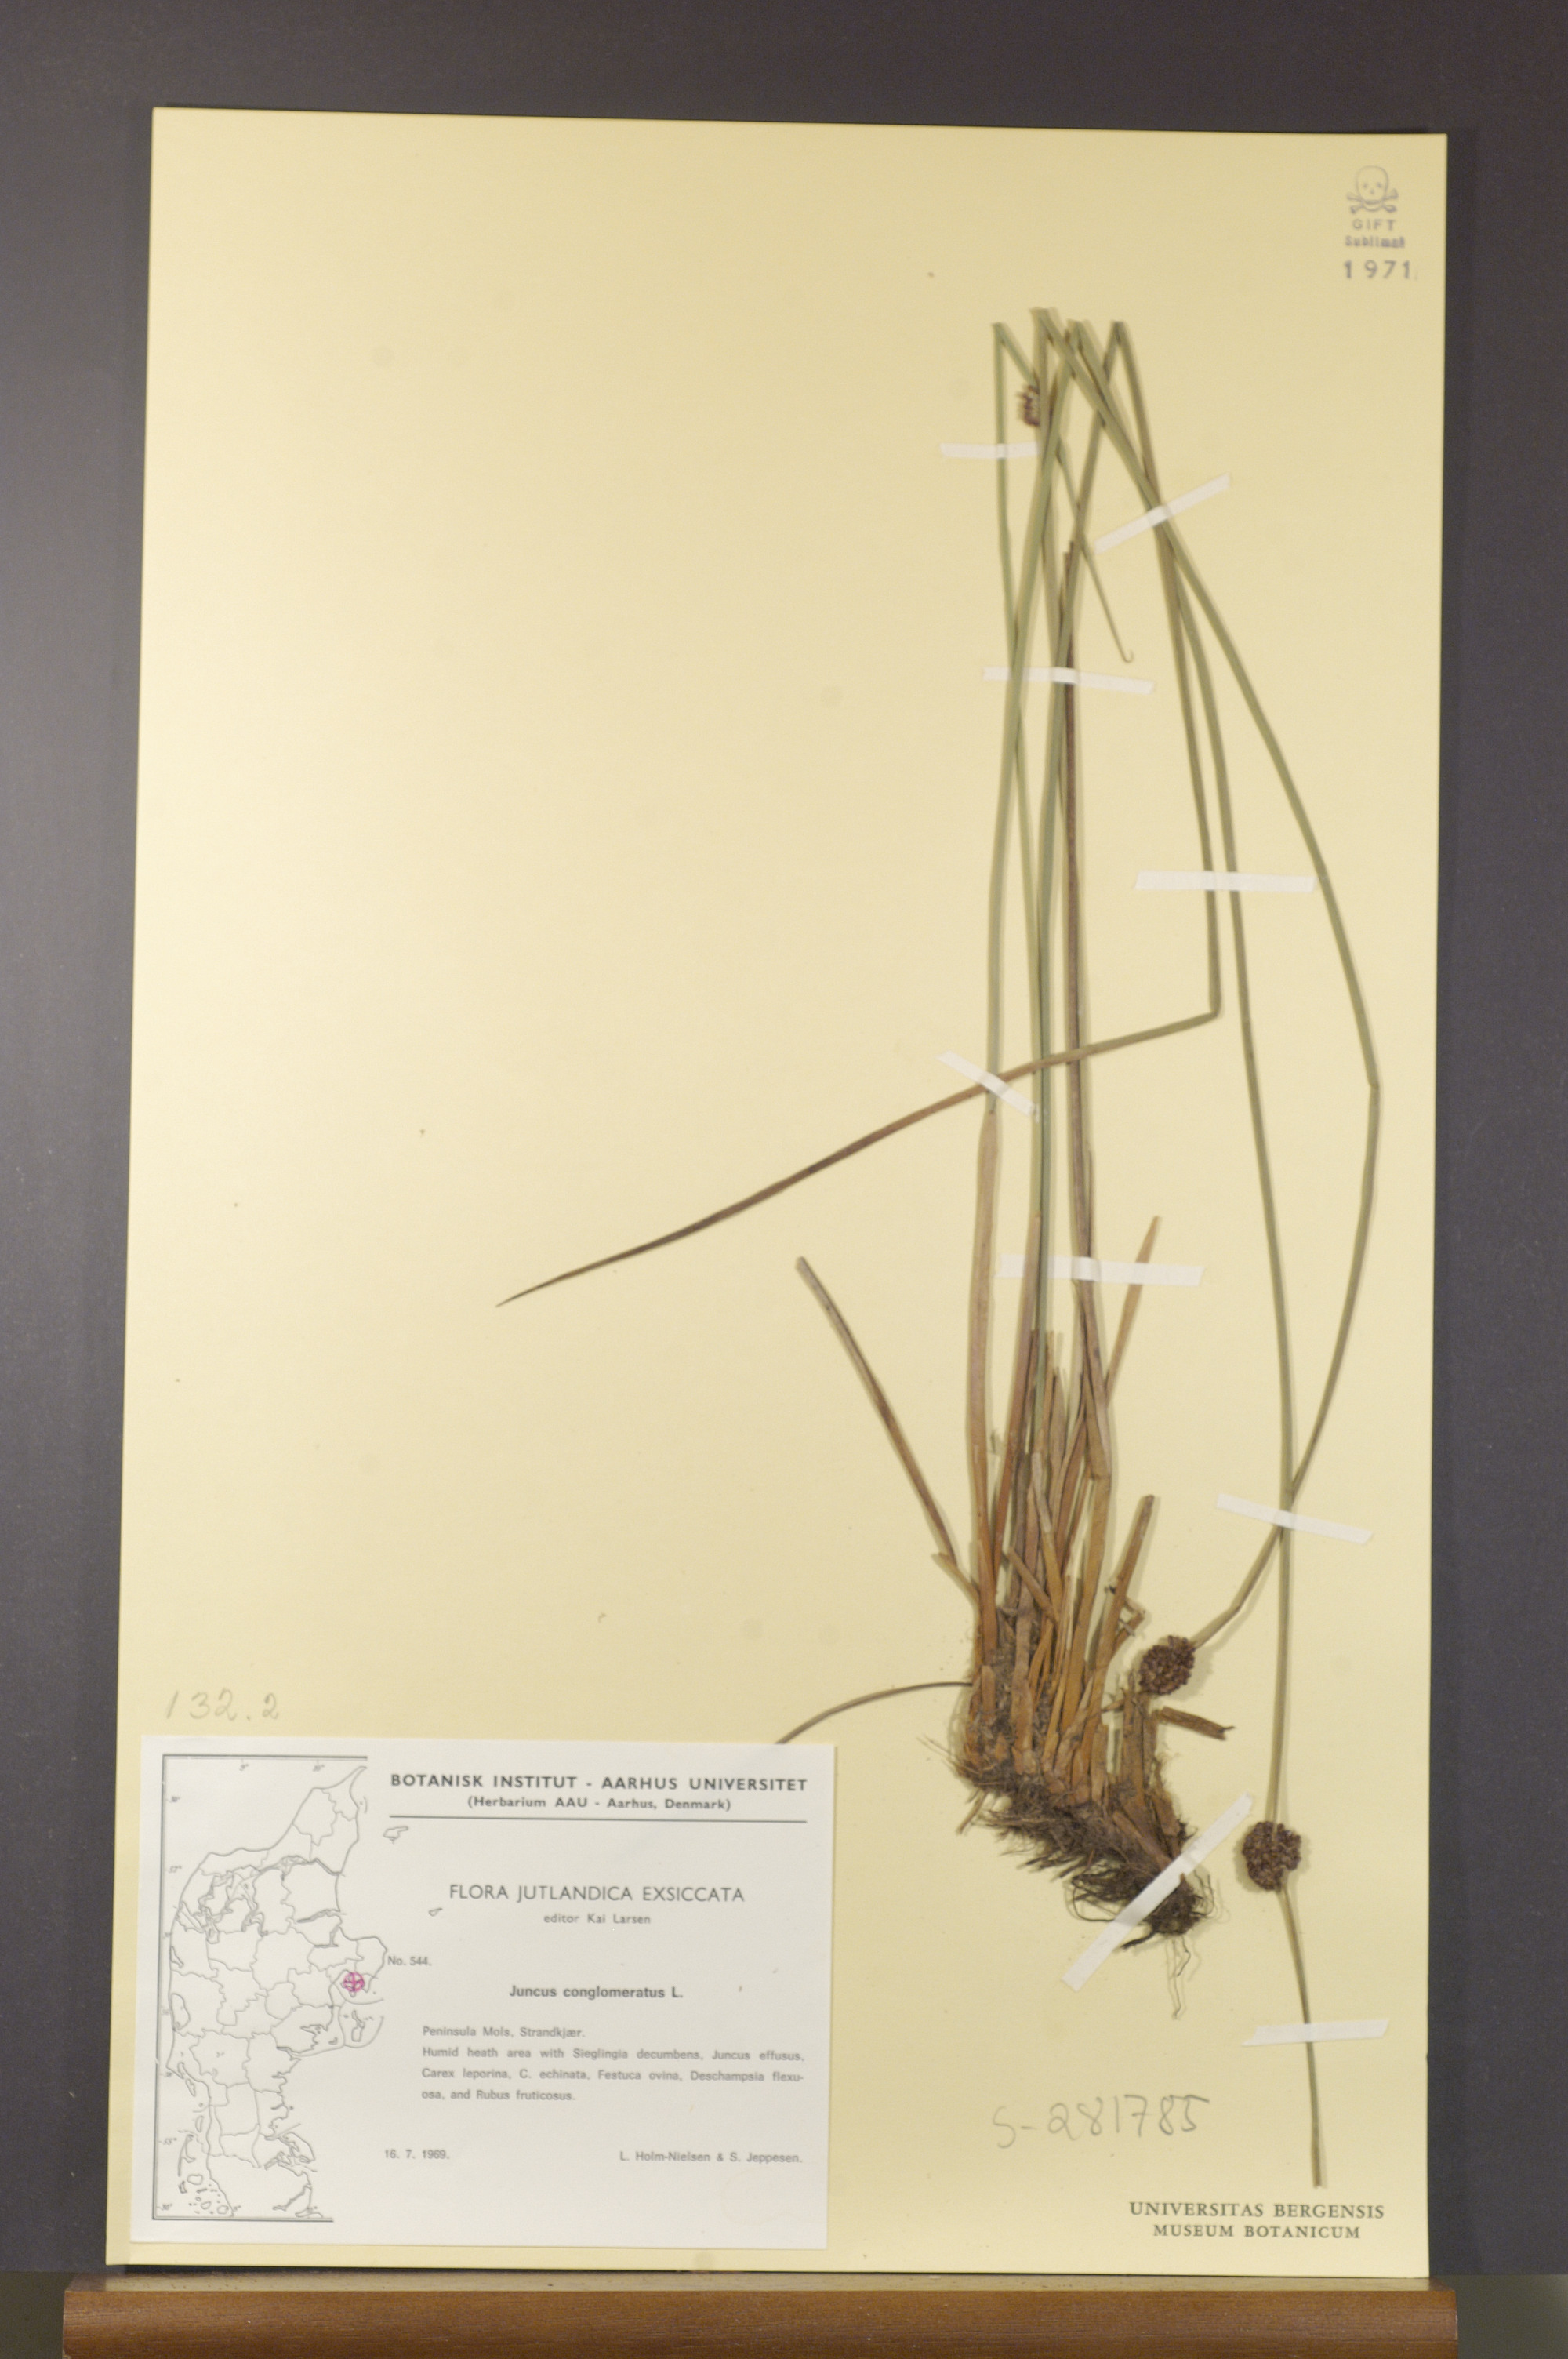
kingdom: Plantae
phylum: Tracheophyta
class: Liliopsida
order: Poales
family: Juncaceae
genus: Juncus
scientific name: Juncus conglomeratus
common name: Compact rush
